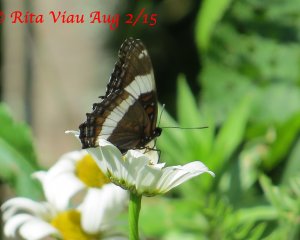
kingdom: Animalia
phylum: Arthropoda
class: Insecta
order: Lepidoptera
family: Nymphalidae
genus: Limenitis
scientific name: Limenitis arthemis
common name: Red-spotted Admiral
